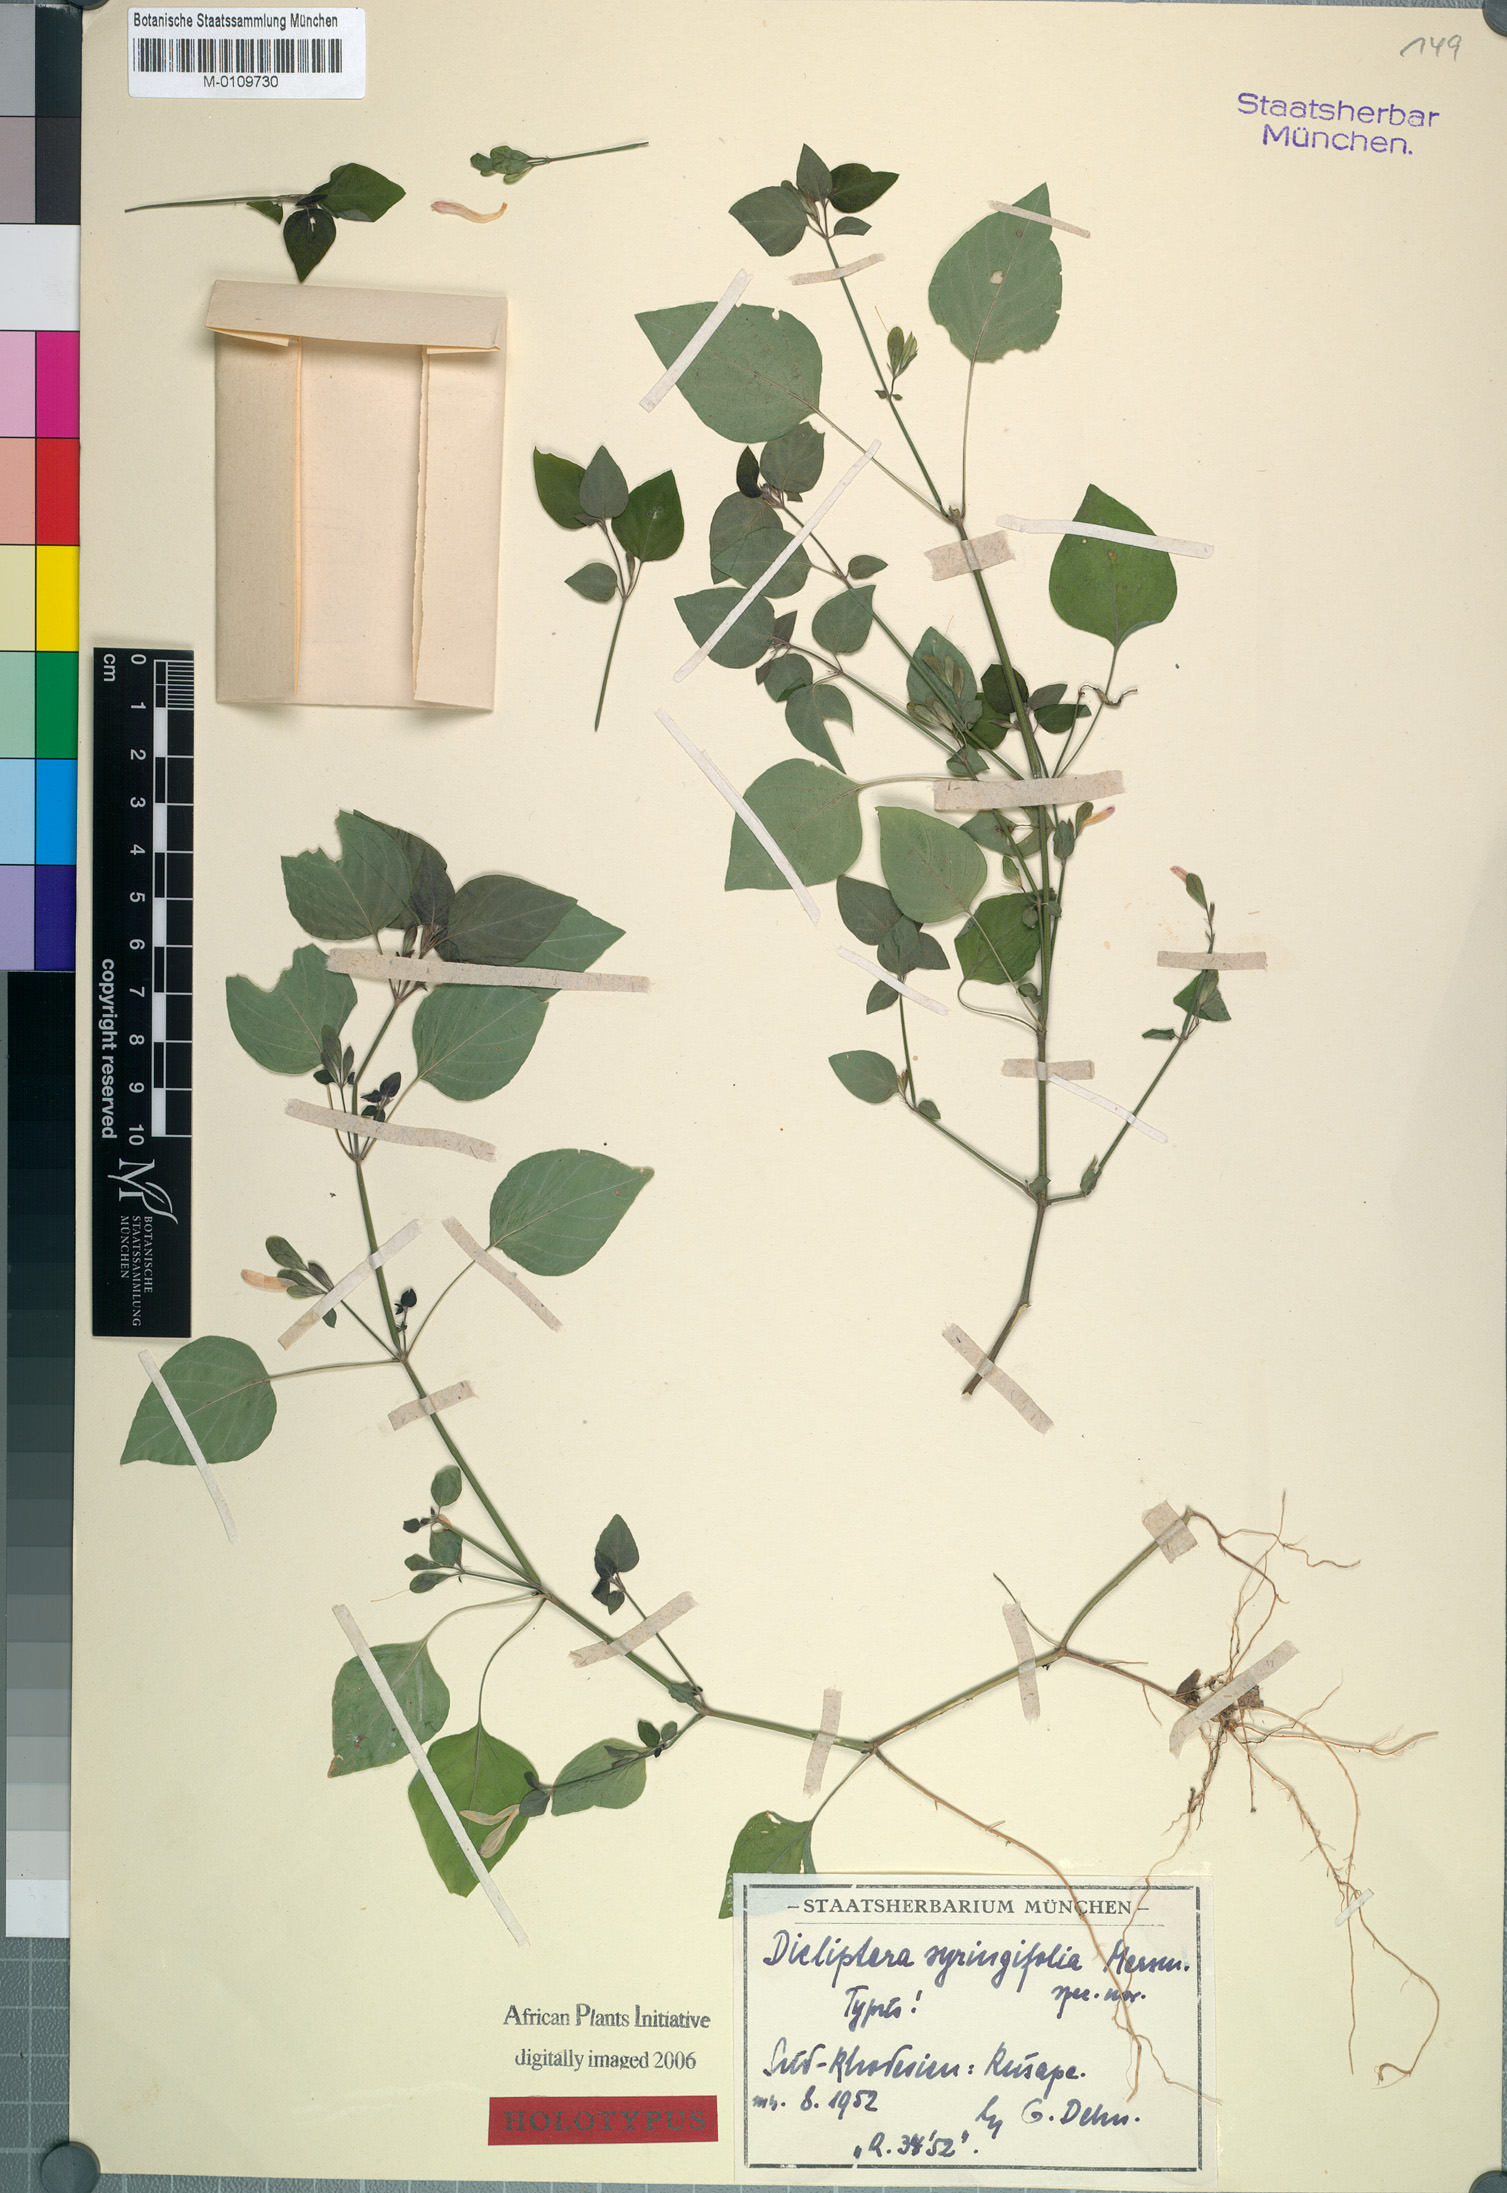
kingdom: Plantae
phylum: Tracheophyta
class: Magnoliopsida
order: Lamiales
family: Acanthaceae
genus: Dicliptera
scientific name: Dicliptera syringifolia
